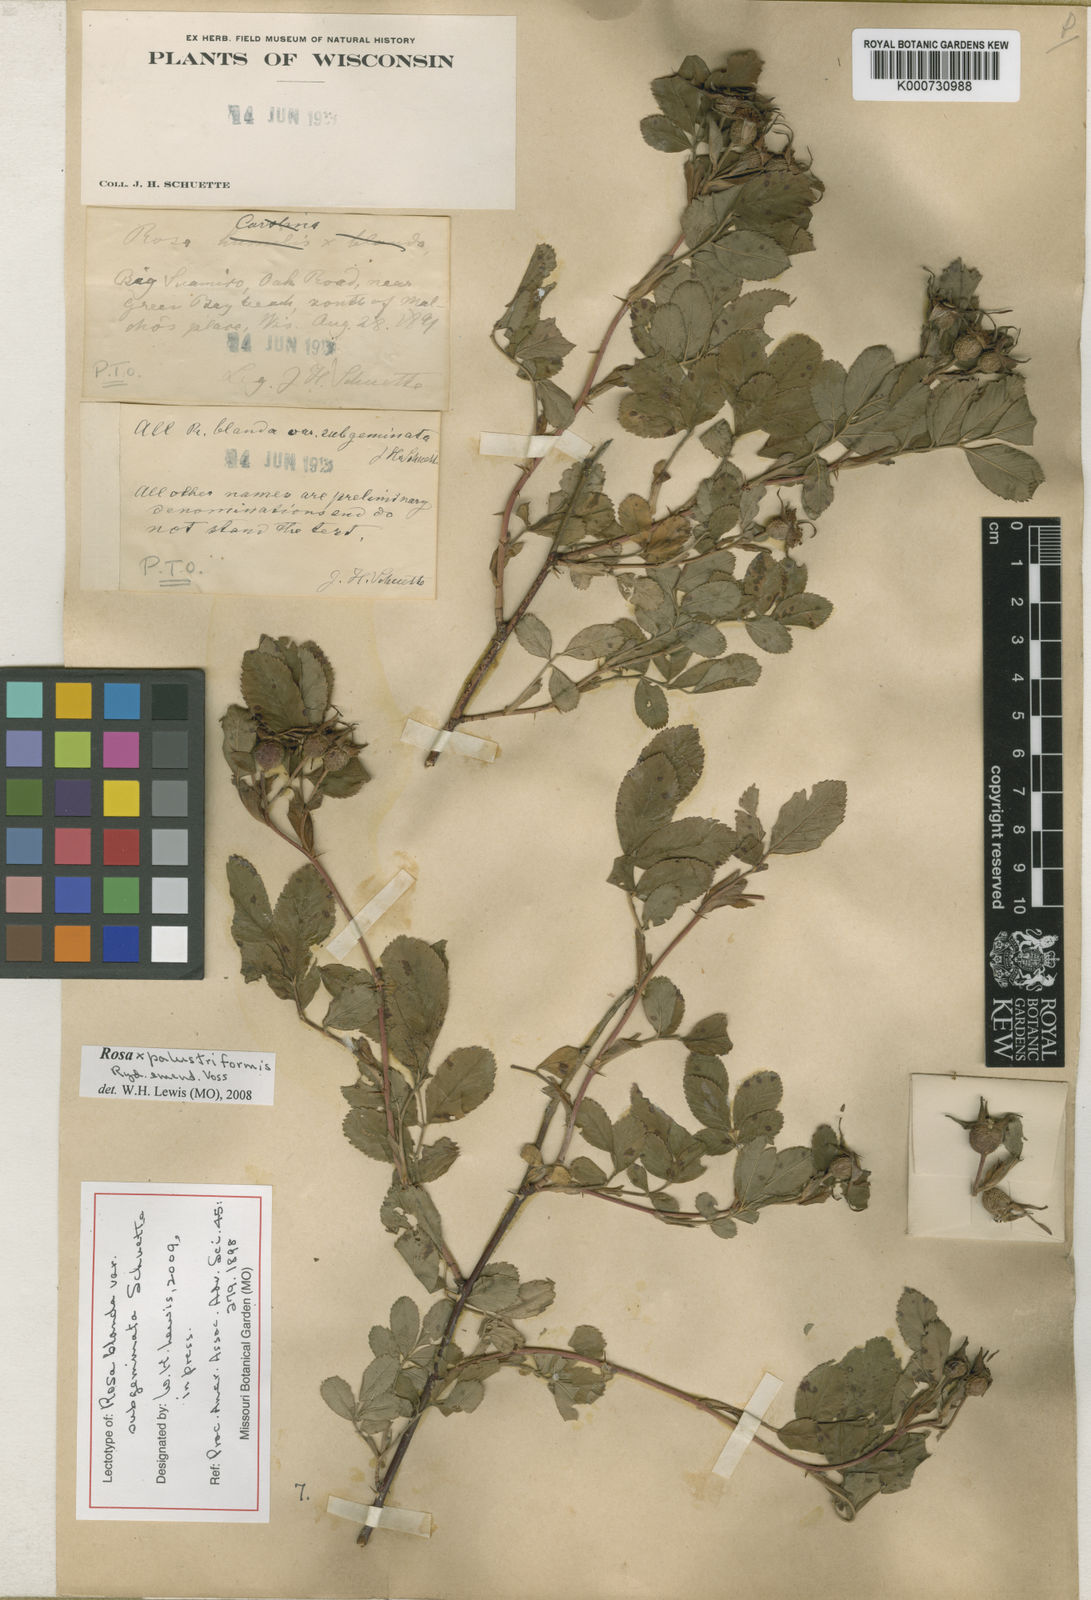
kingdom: Plantae
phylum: Tracheophyta
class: Magnoliopsida
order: Rosales
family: Rosaceae
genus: Rosa
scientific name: Rosa blanda
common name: Smooth rose
